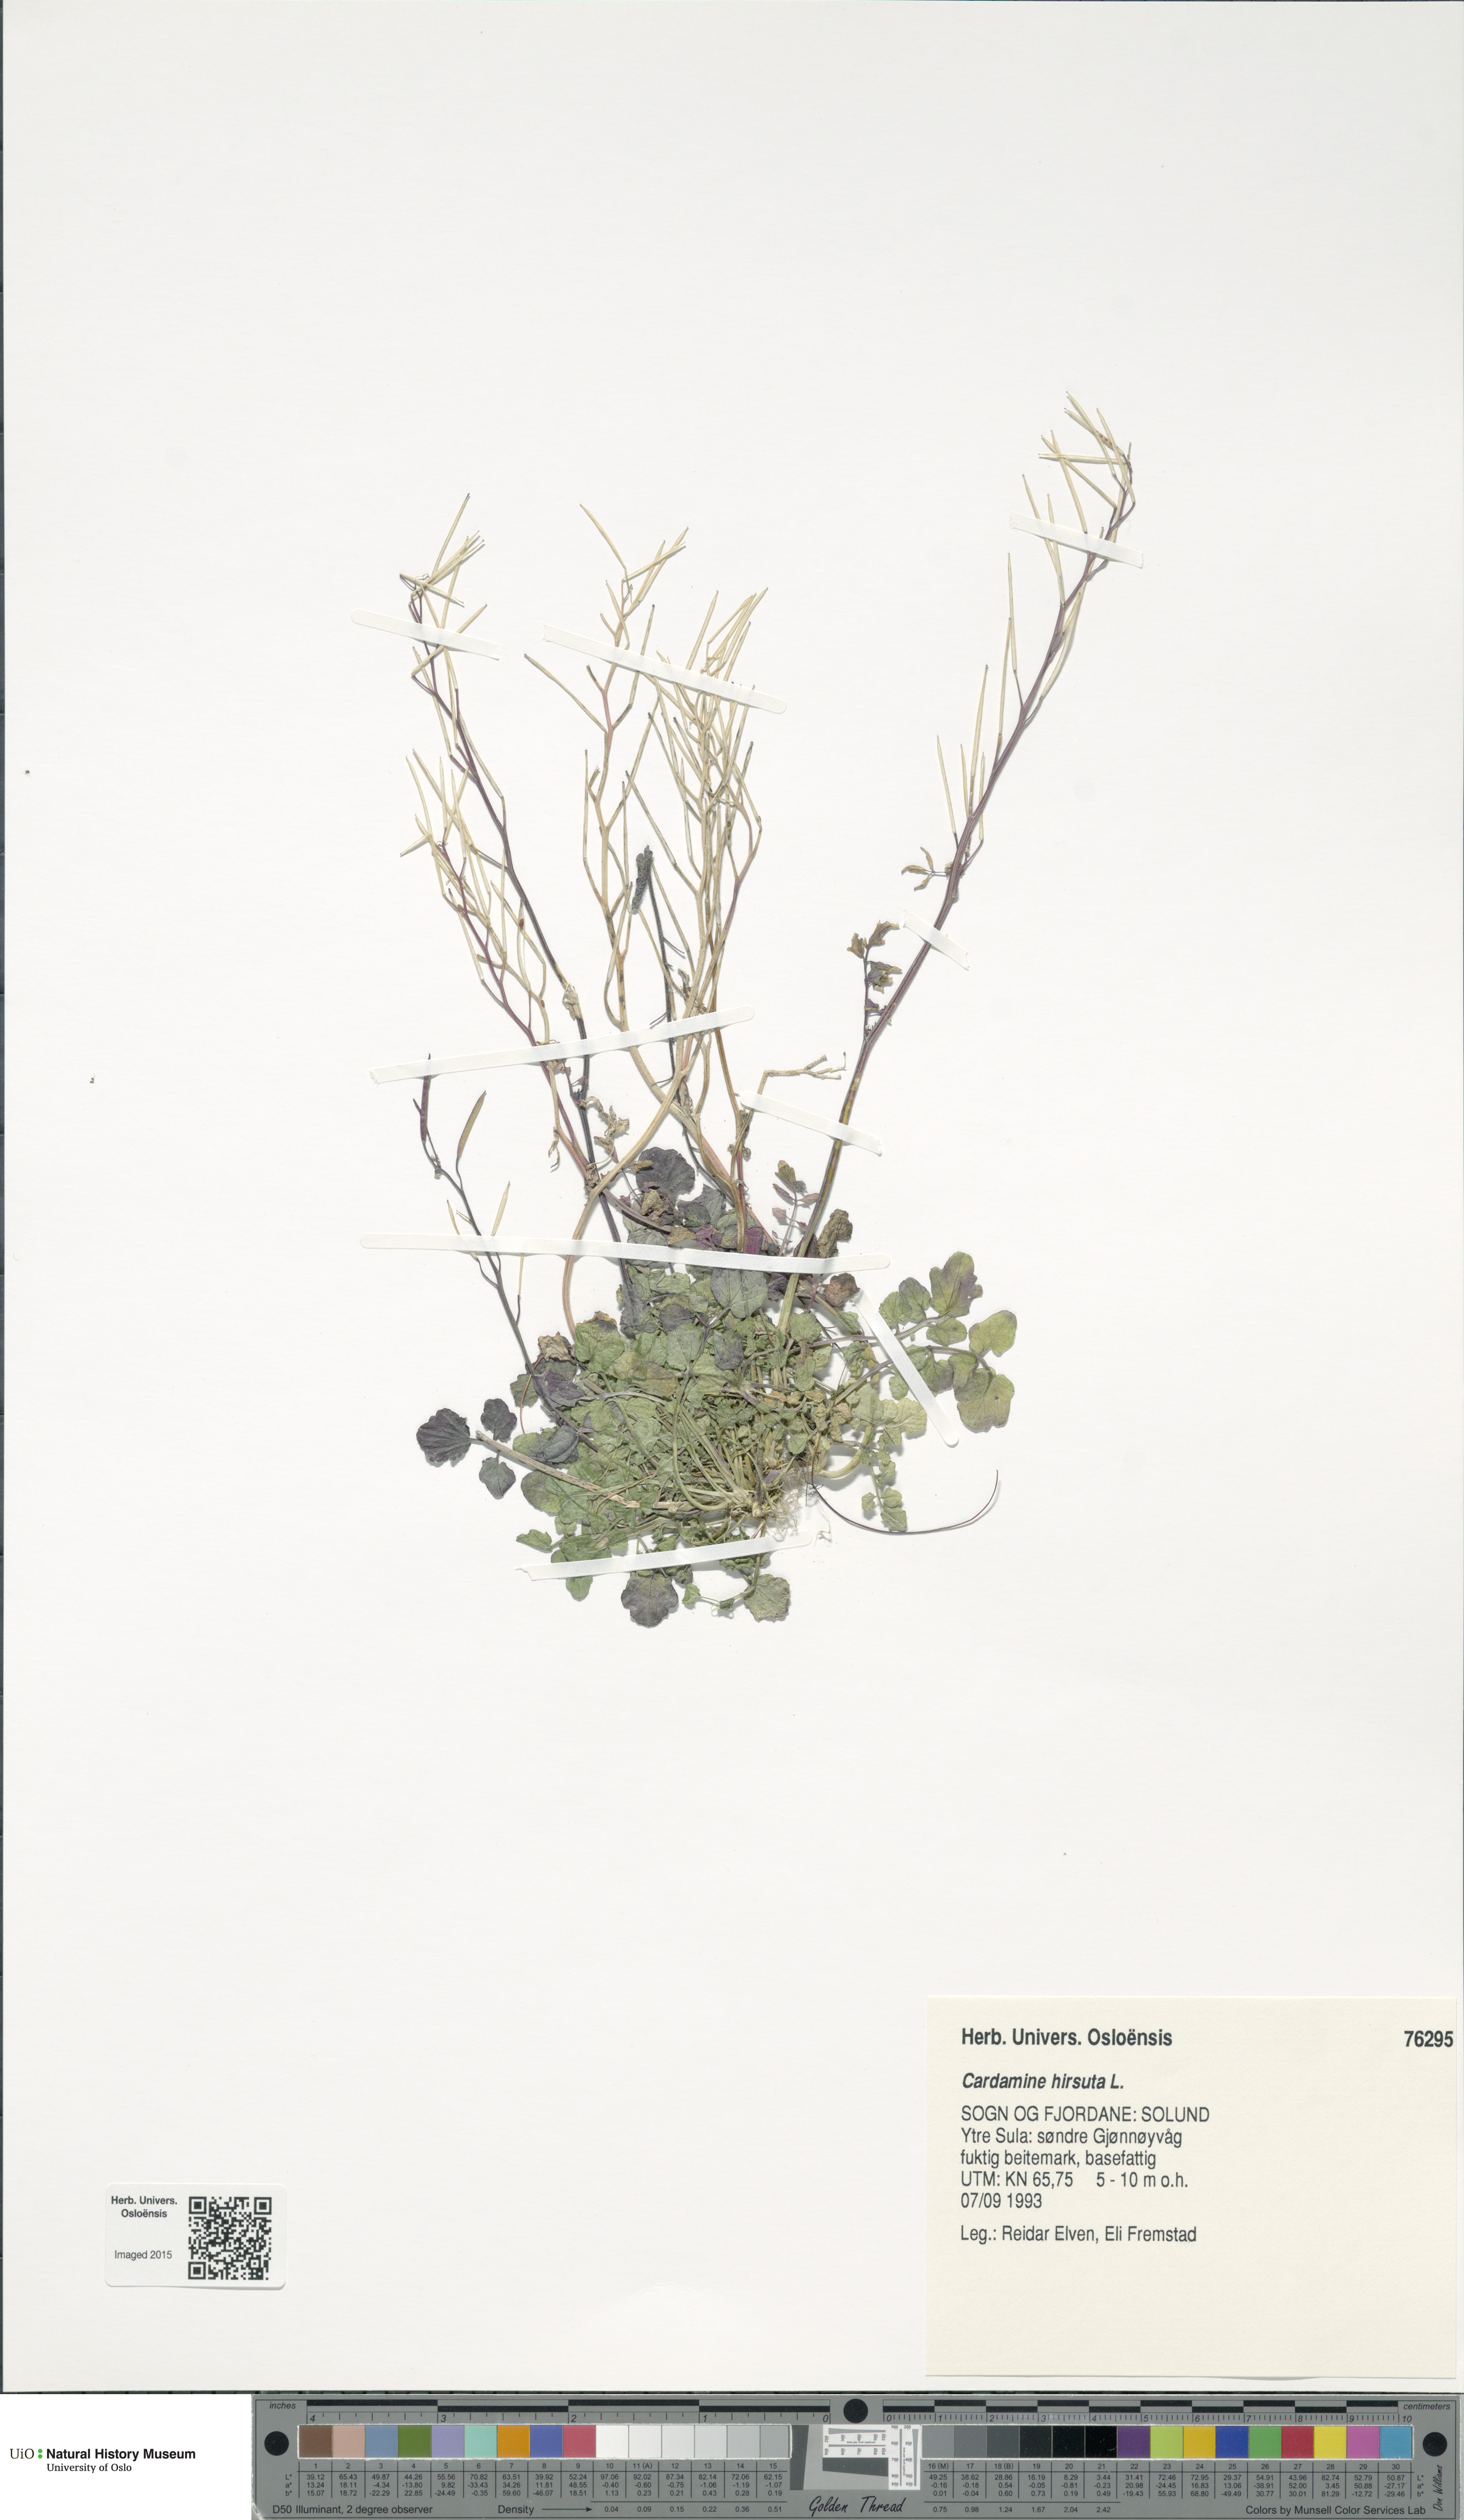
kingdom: Plantae
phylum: Tracheophyta
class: Magnoliopsida
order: Brassicales
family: Brassicaceae
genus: Cardamine
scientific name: Cardamine hirsuta
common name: Hairy bittercress
